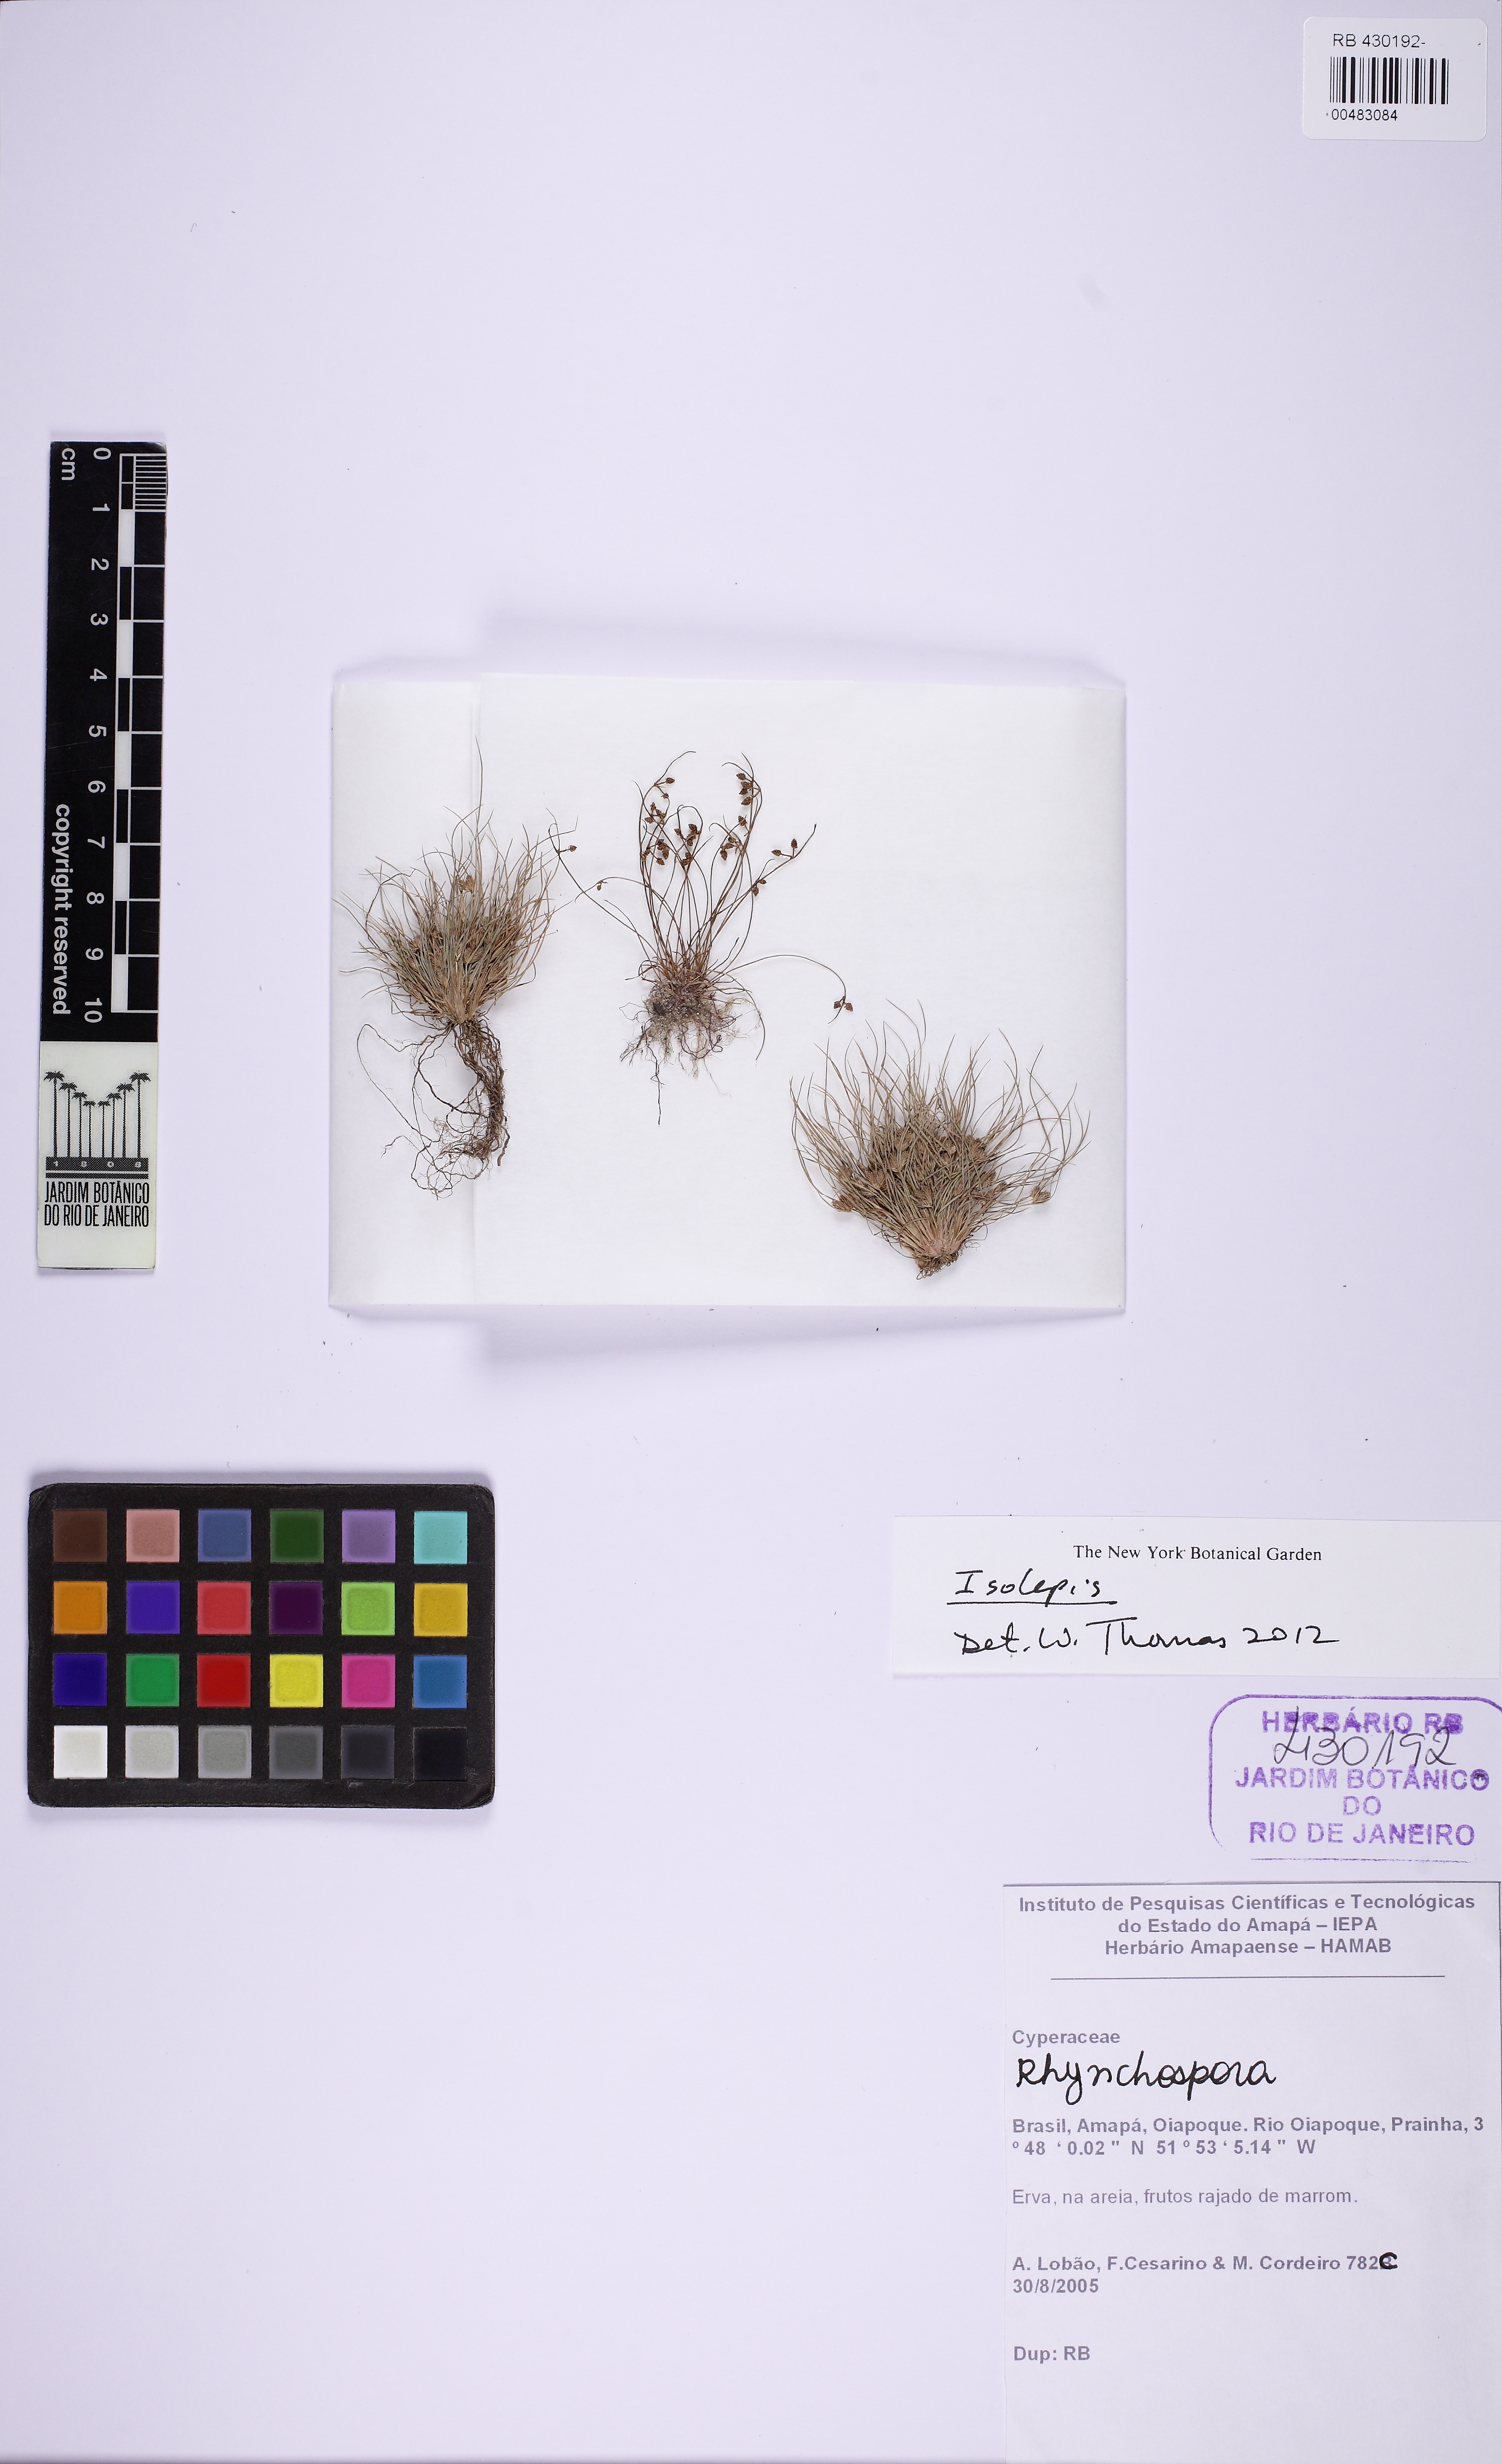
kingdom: Plantae
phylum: Tracheophyta
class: Liliopsida
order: Poales
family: Cyperaceae
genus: Isolepis
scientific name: Isolepis
